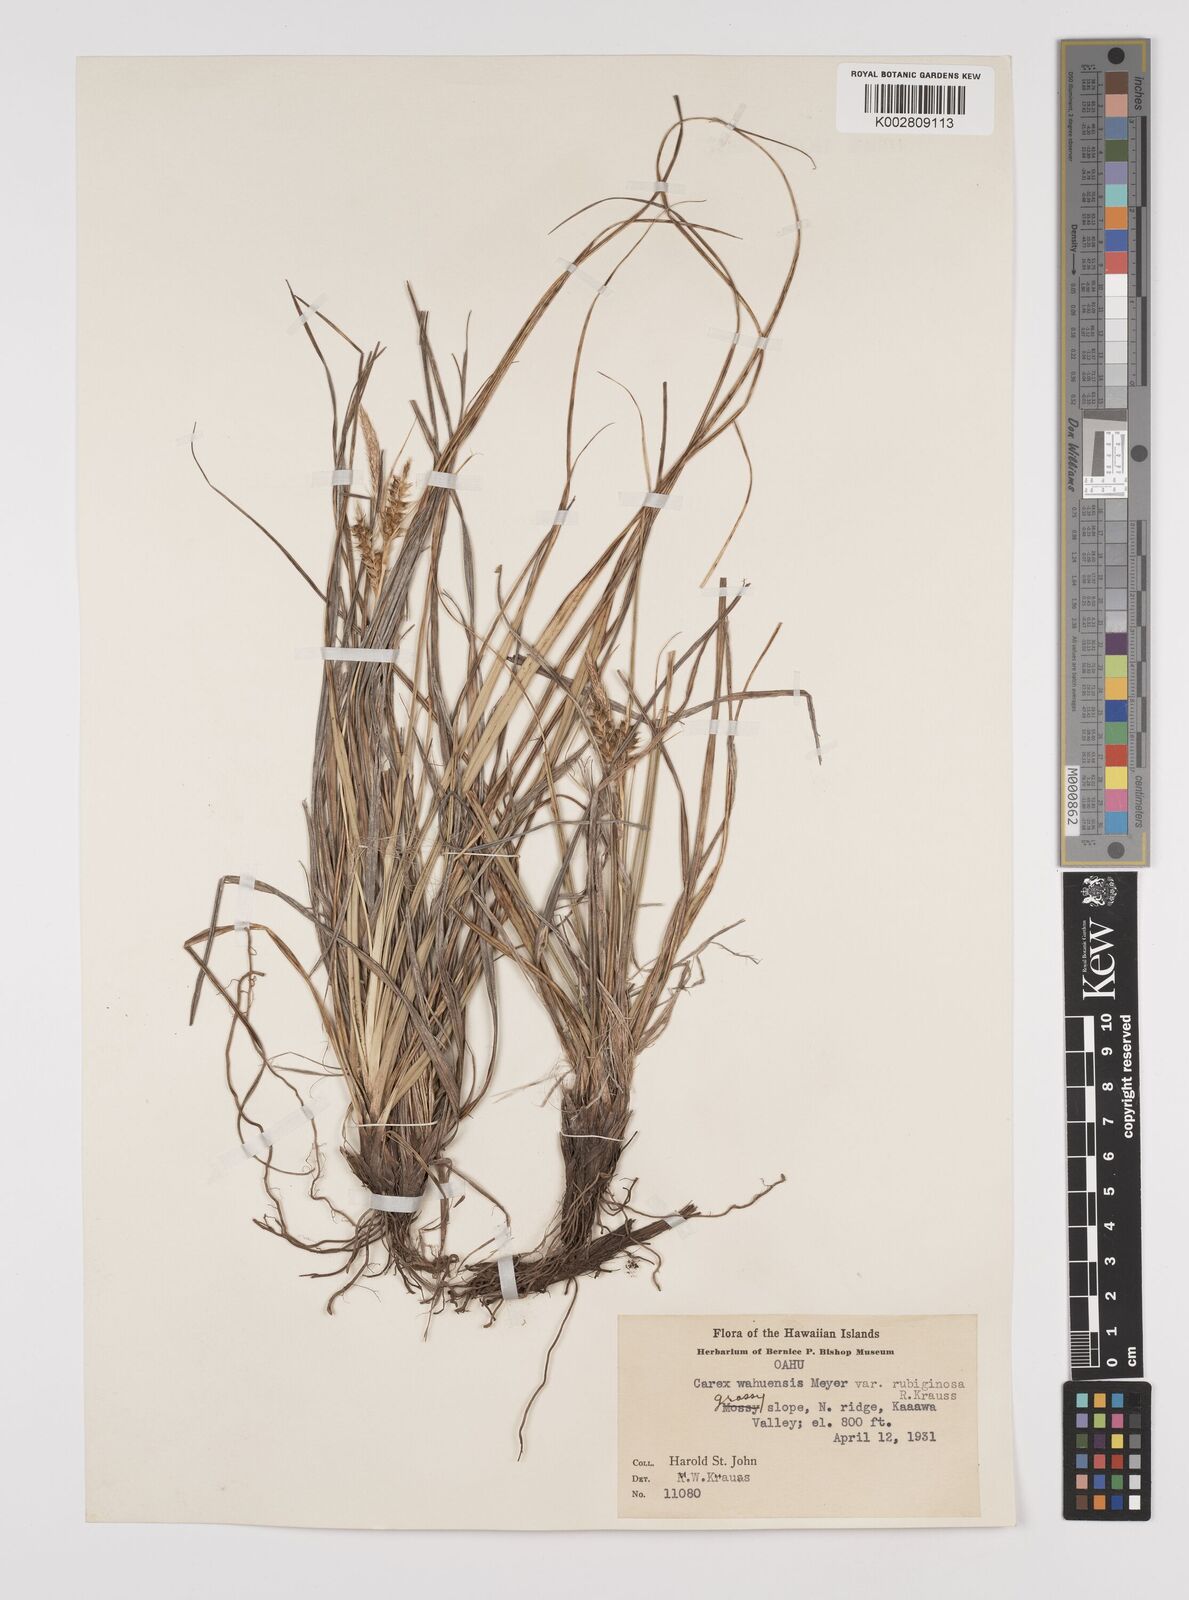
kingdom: Plantae
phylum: Tracheophyta
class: Liliopsida
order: Poales
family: Cyperaceae
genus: Carex
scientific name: Carex wahuensis
